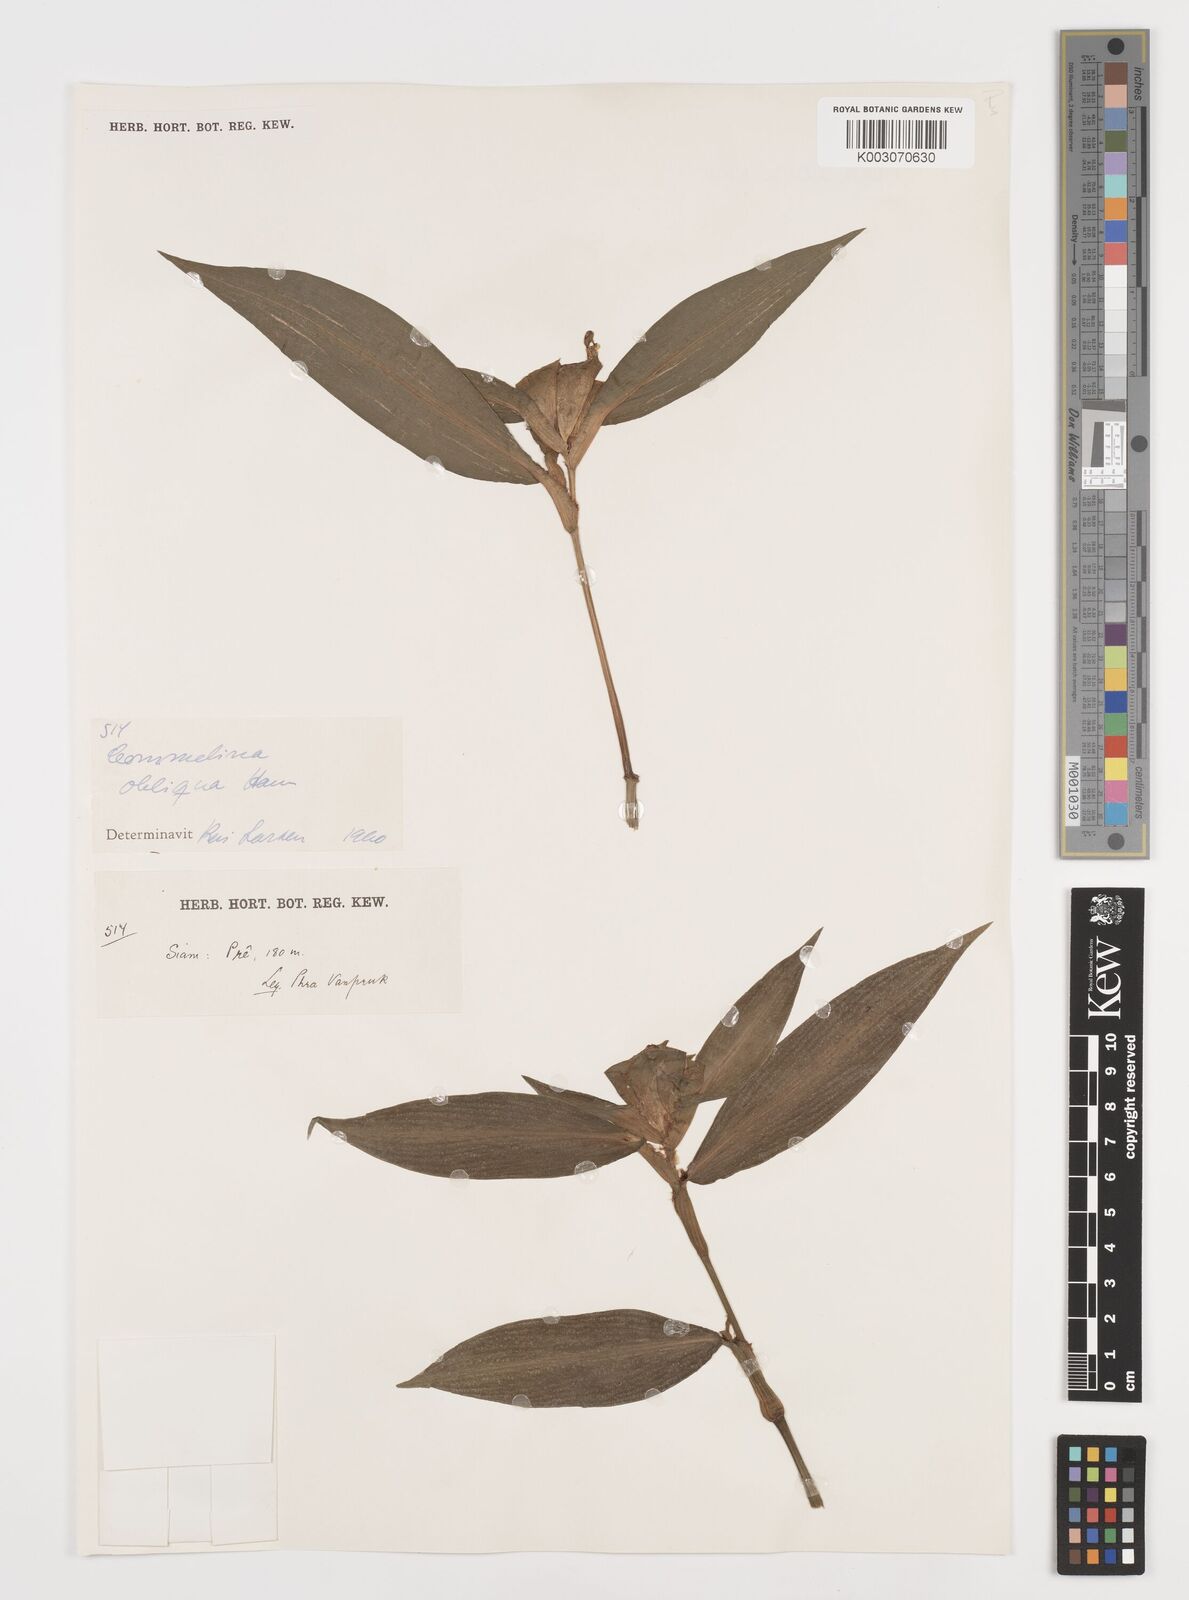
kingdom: Plantae
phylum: Tracheophyta
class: Liliopsida
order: Commelinales
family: Commelinaceae
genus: Commelina
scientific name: Commelina paludosa
